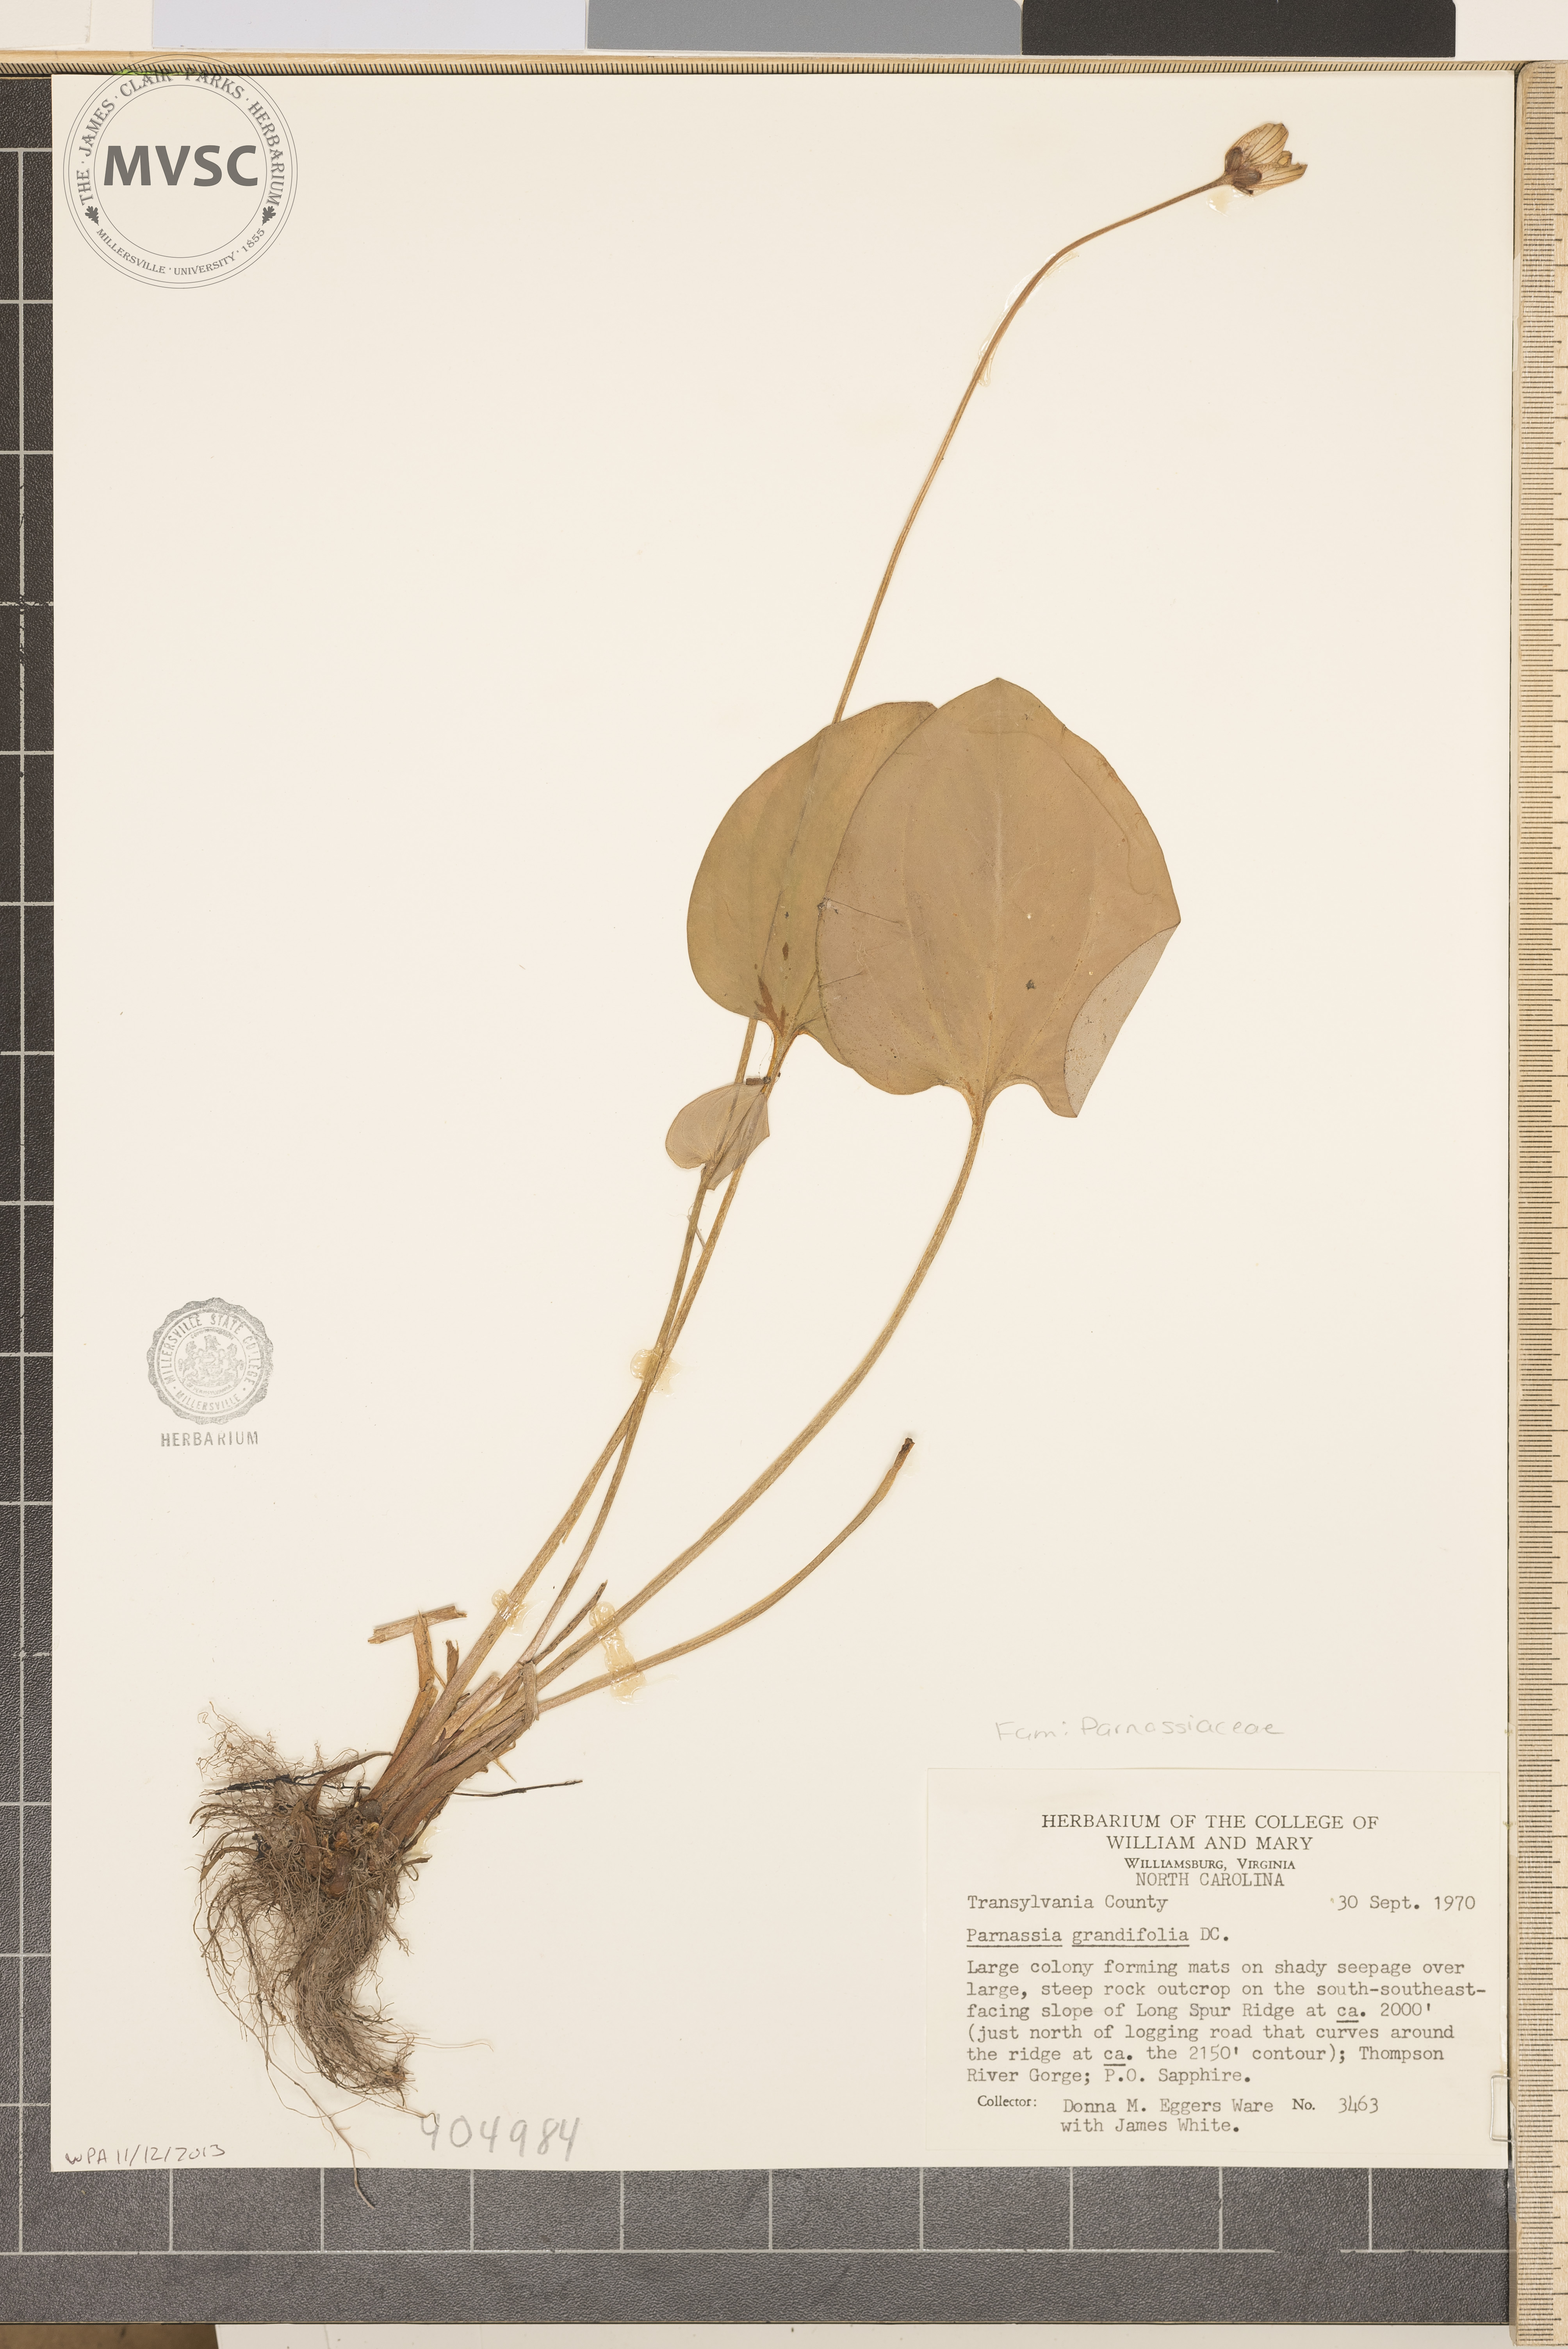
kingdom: Plantae
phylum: Tracheophyta
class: Magnoliopsida
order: Celastrales
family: Parnassiaceae
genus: Parnassia
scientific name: Parnassia grandifolia
